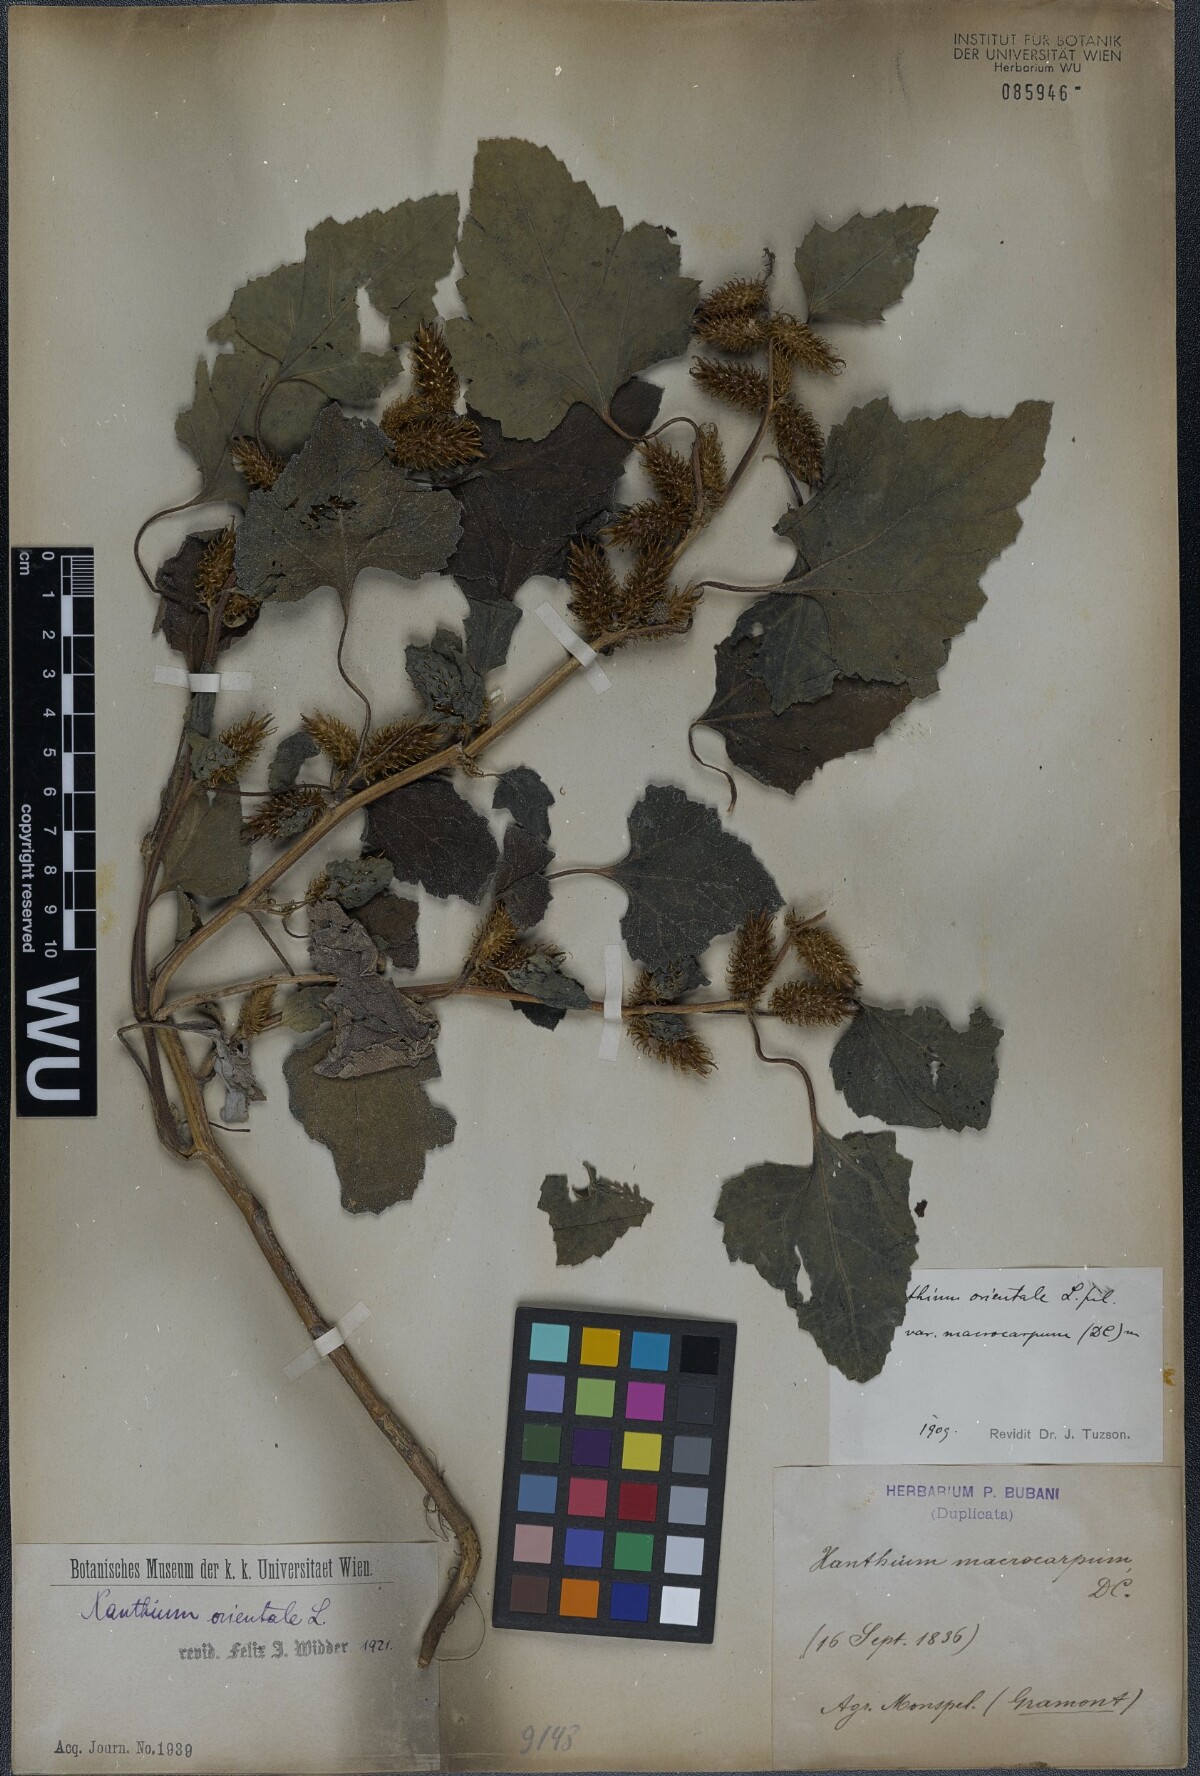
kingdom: Plantae
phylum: Tracheophyta
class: Magnoliopsida
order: Asterales
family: Asteraceae
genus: Xanthium
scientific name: Xanthium orientale
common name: Californian burr
